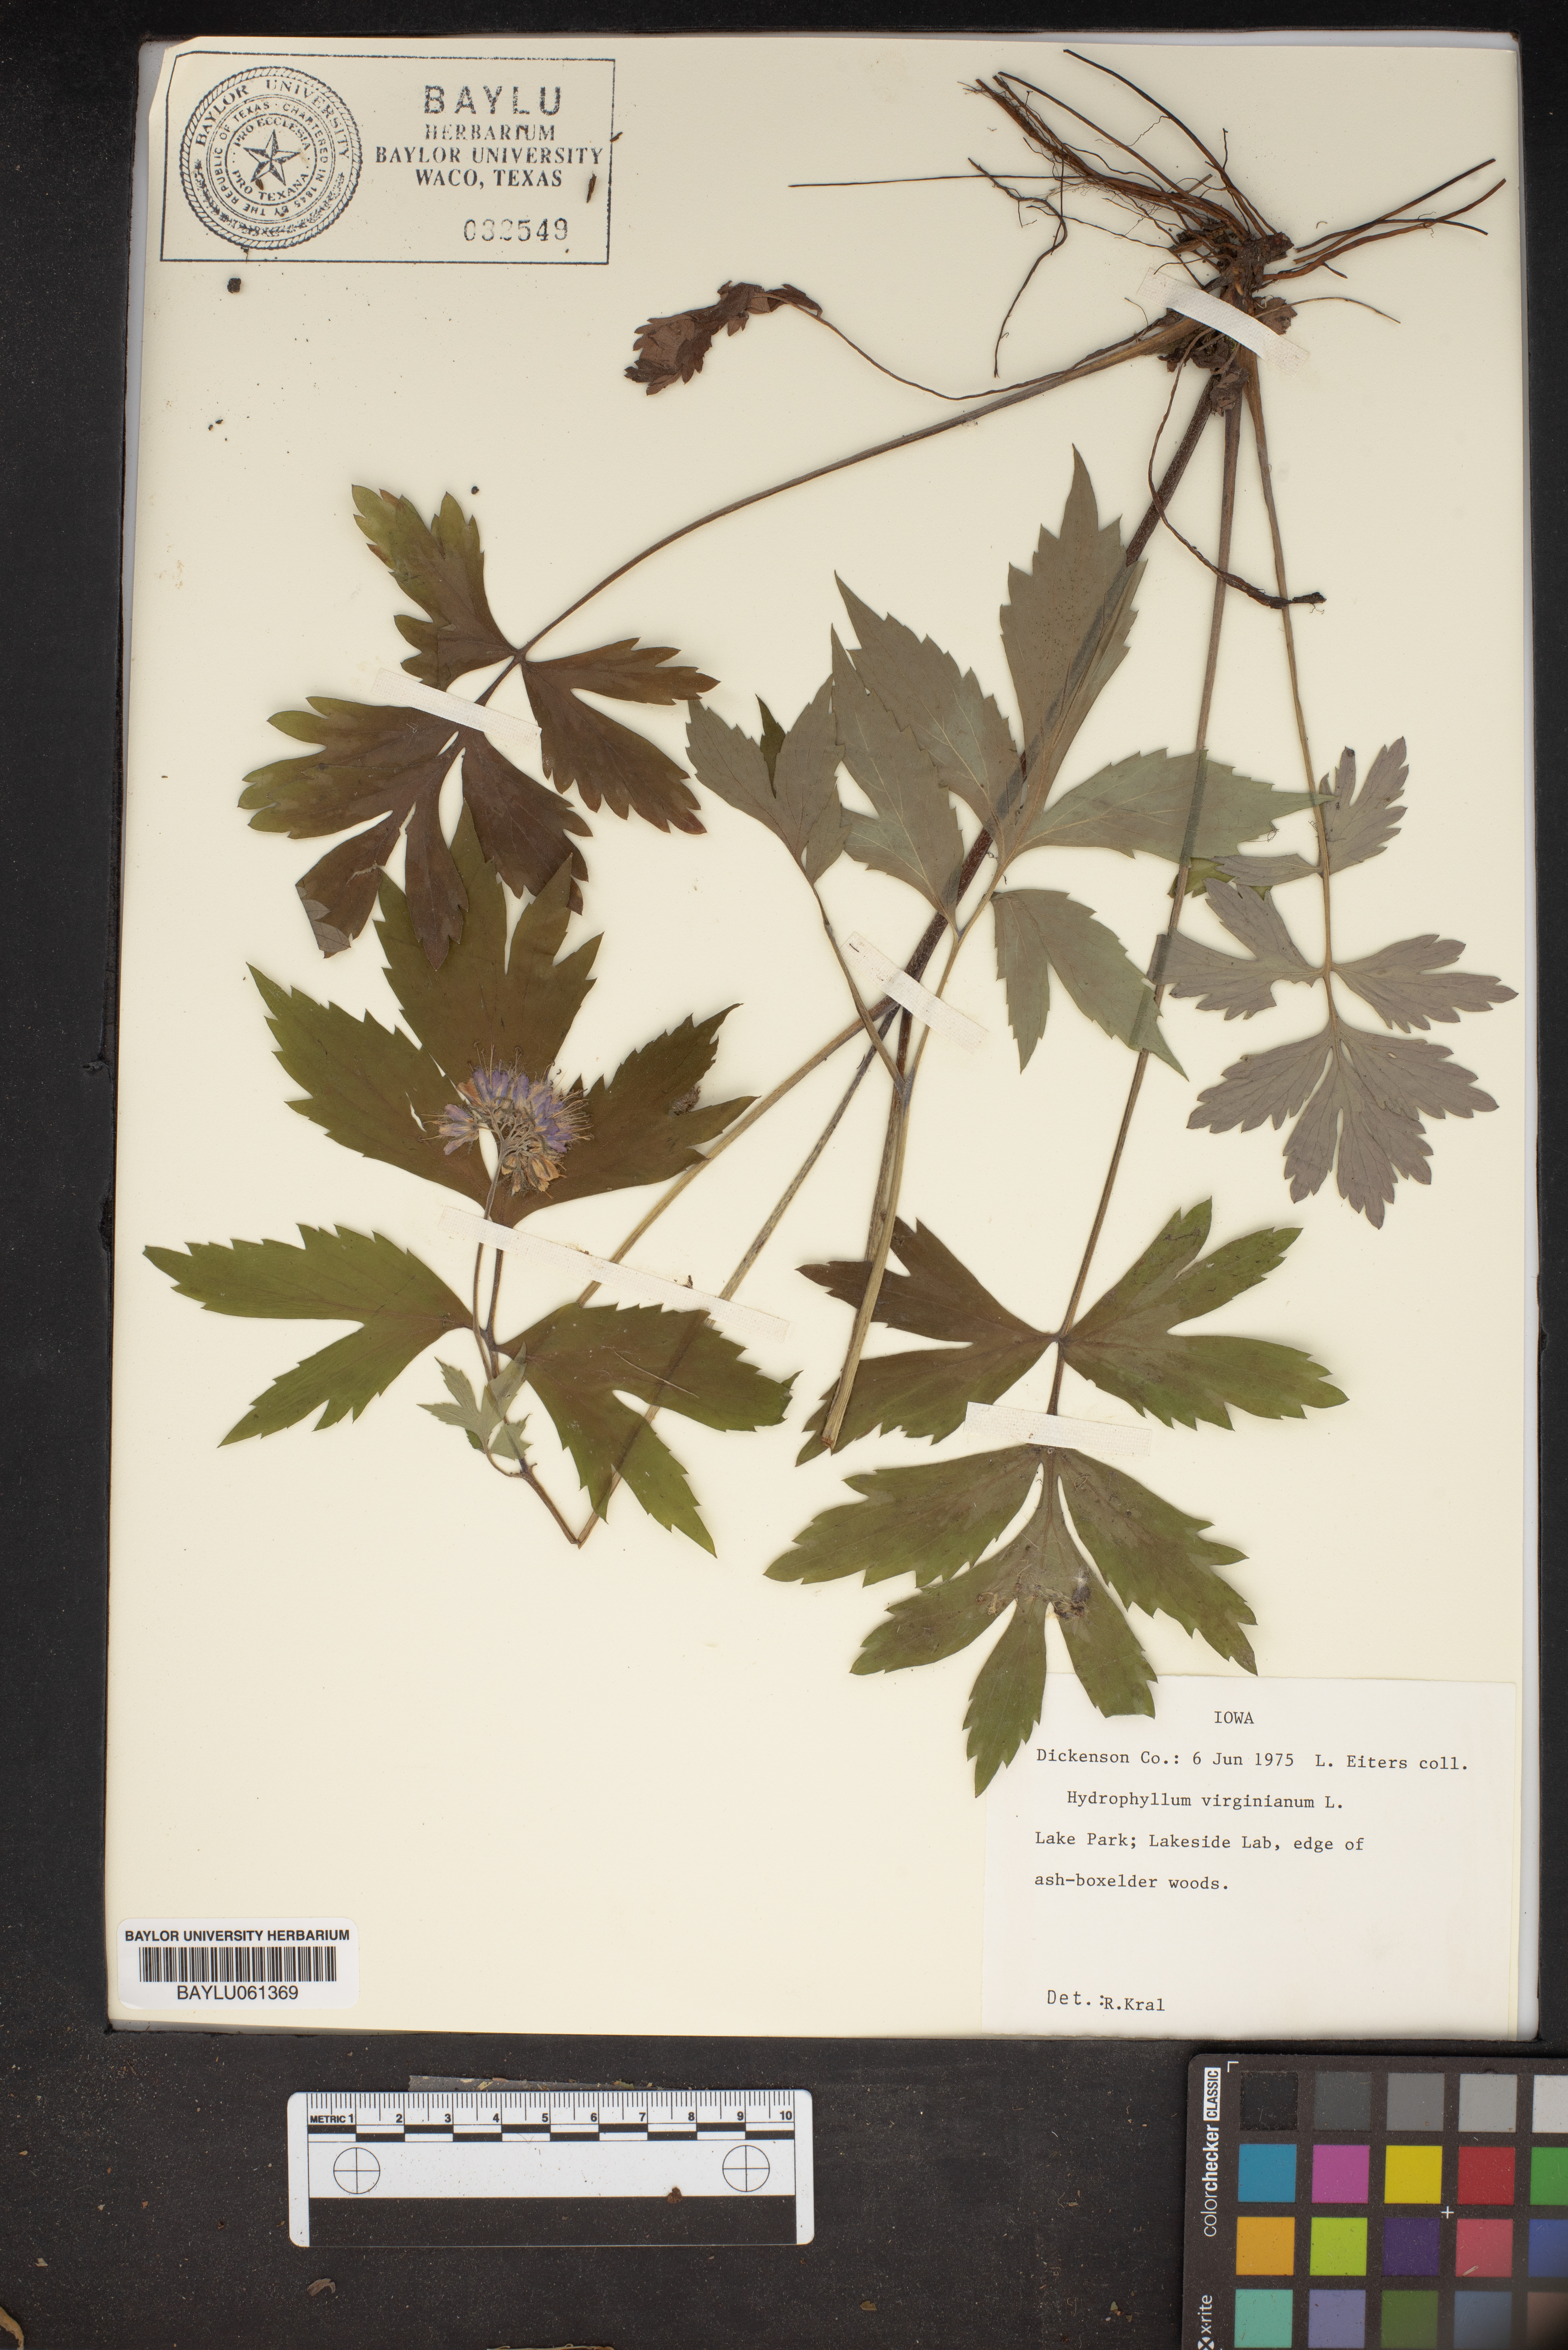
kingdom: Plantae
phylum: Tracheophyta
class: Magnoliopsida
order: Boraginales
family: Hydrophyllaceae
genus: Hydrophyllum
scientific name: Hydrophyllum virginianum
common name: Virginia waterleaf
